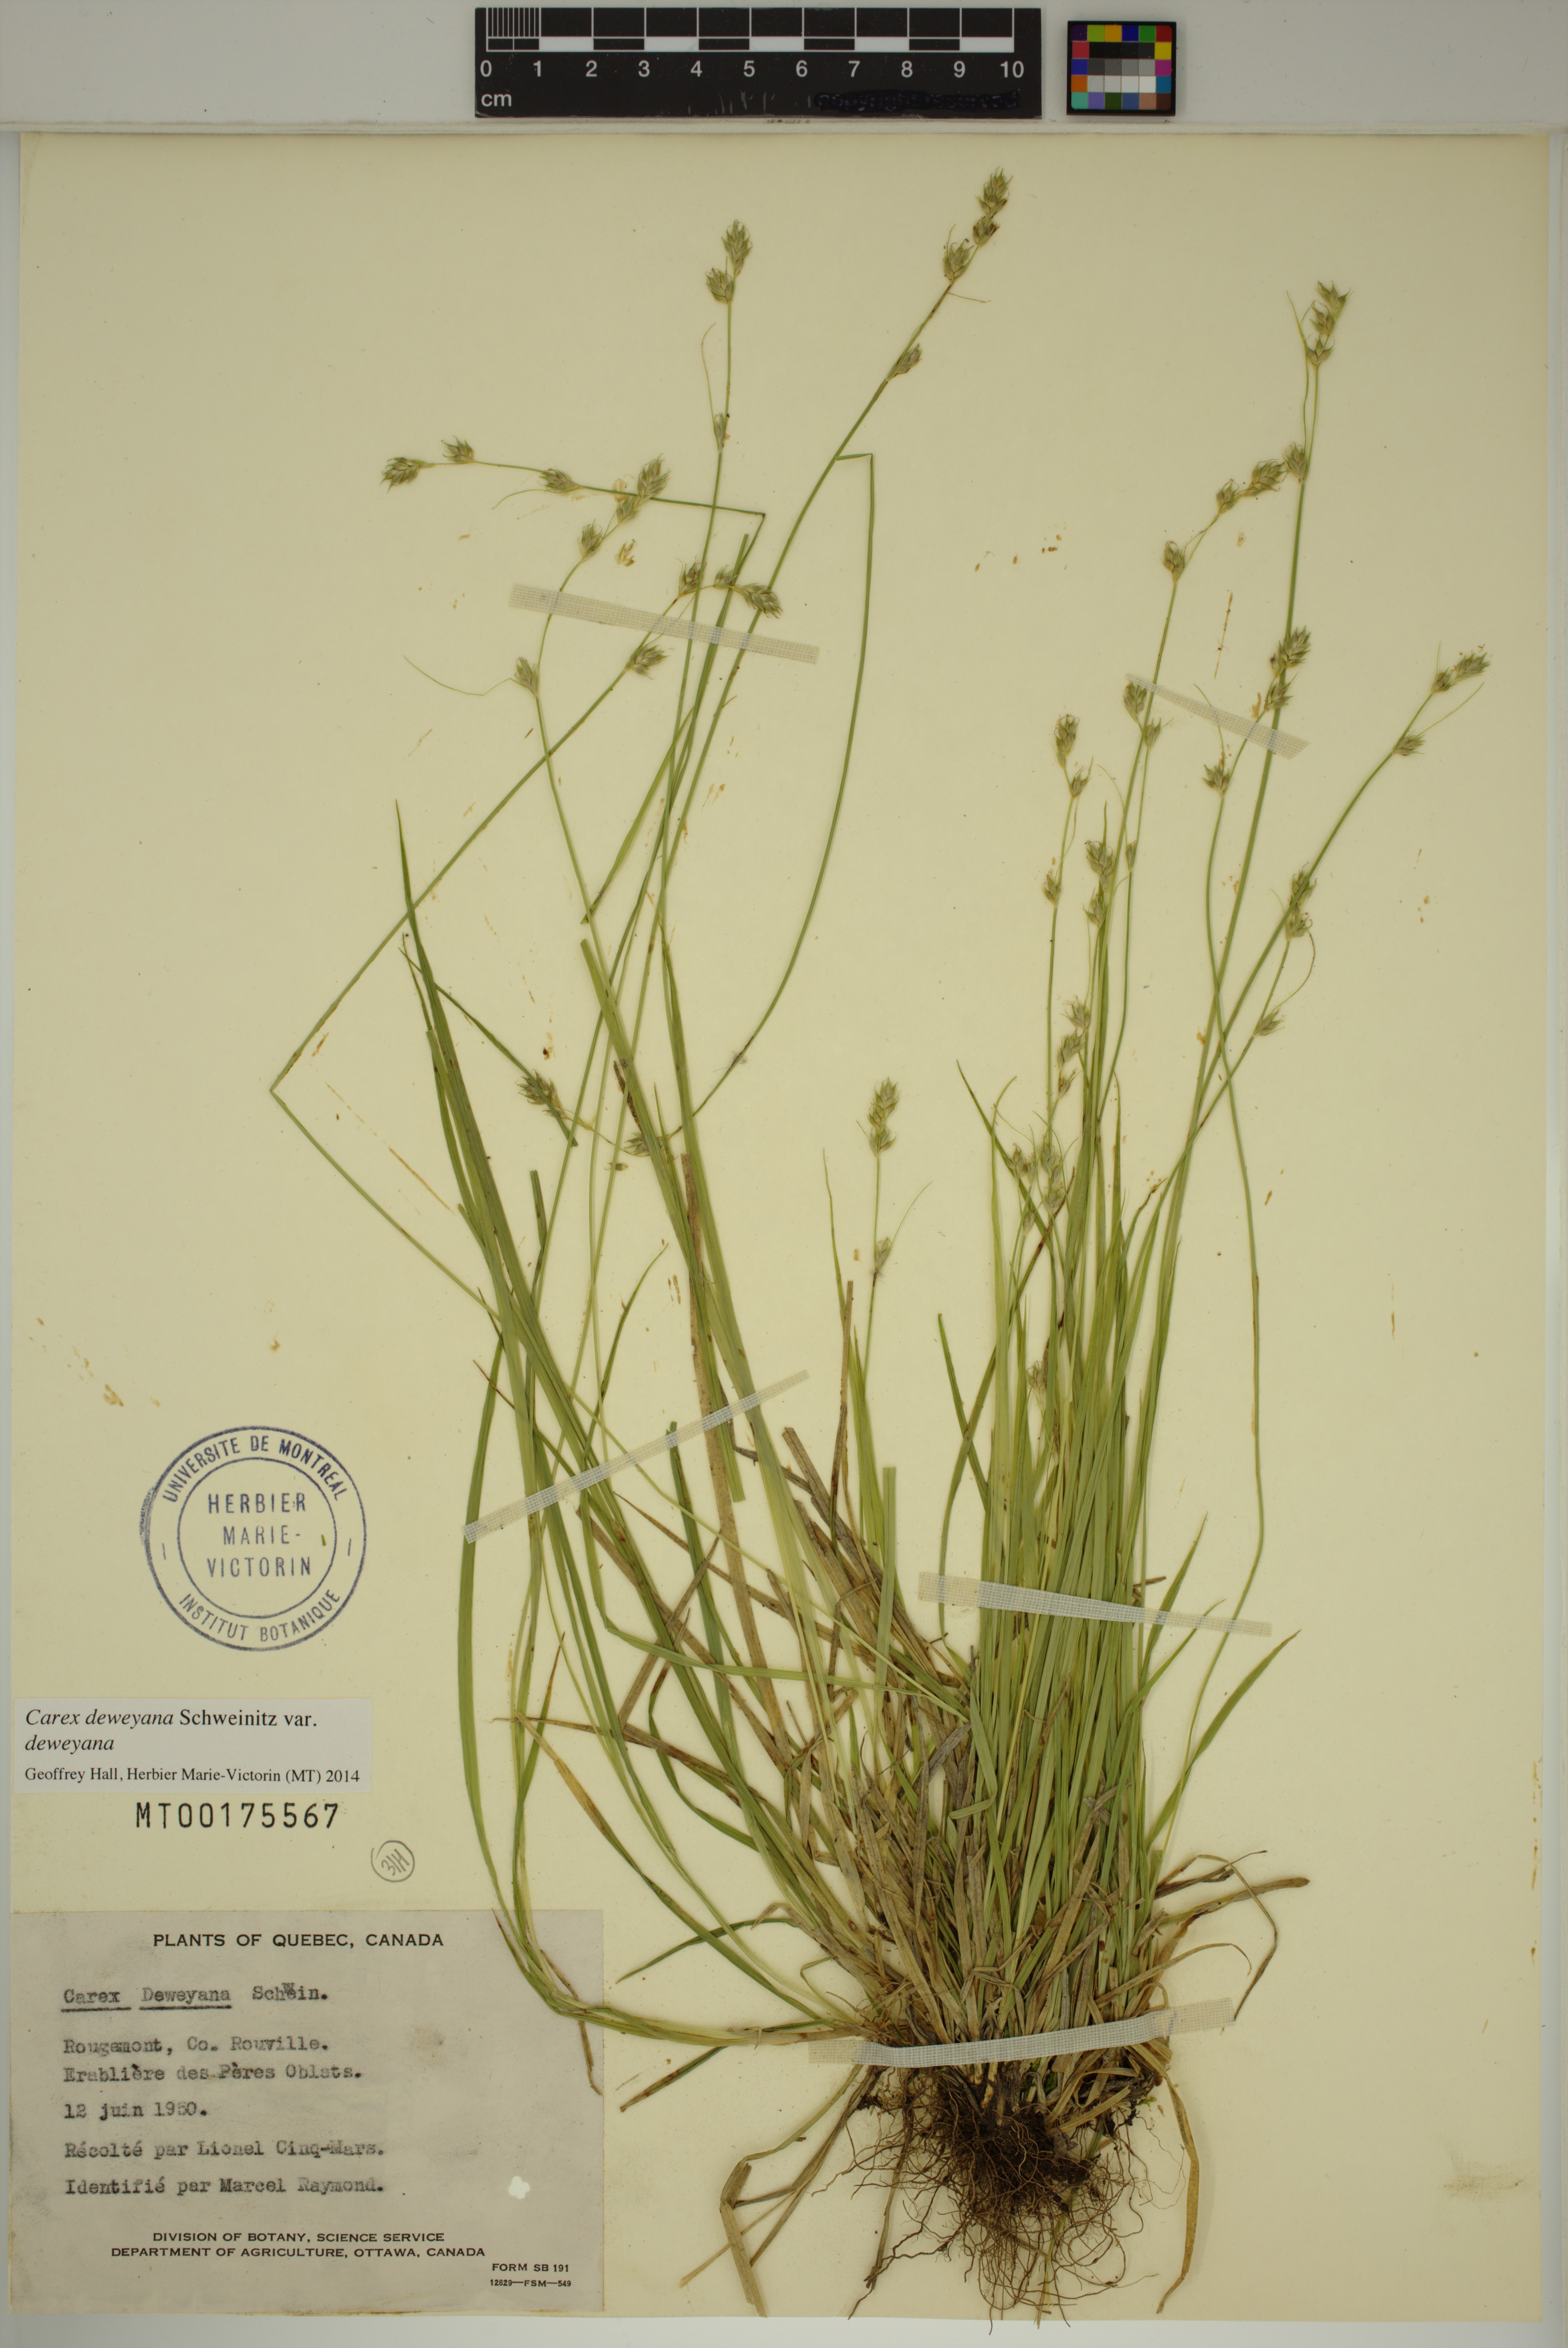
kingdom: Plantae
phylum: Tracheophyta
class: Liliopsida
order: Poales
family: Cyperaceae
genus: Carex
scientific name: Carex deweyana
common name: Dewey's sedge
